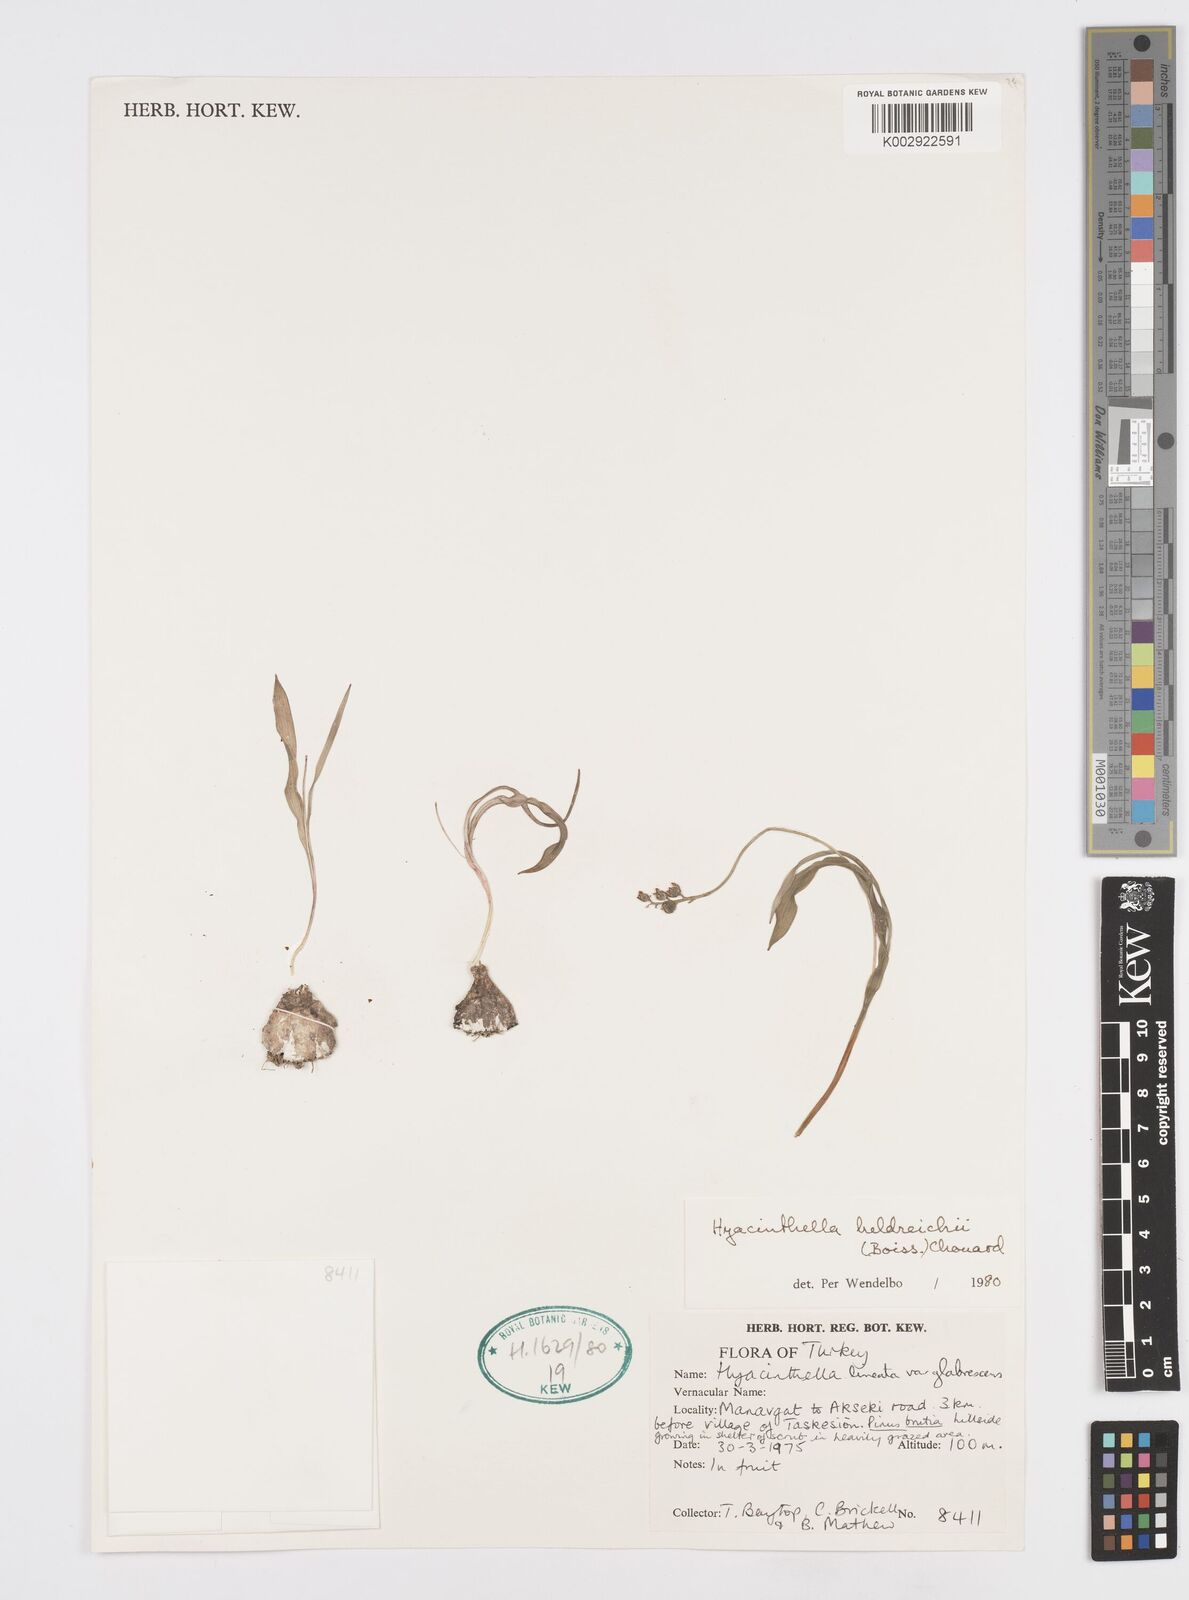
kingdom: Plantae
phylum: Tracheophyta
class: Liliopsida
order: Asparagales
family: Asparagaceae
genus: Hyacinthella
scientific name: Hyacinthella heldreichii
